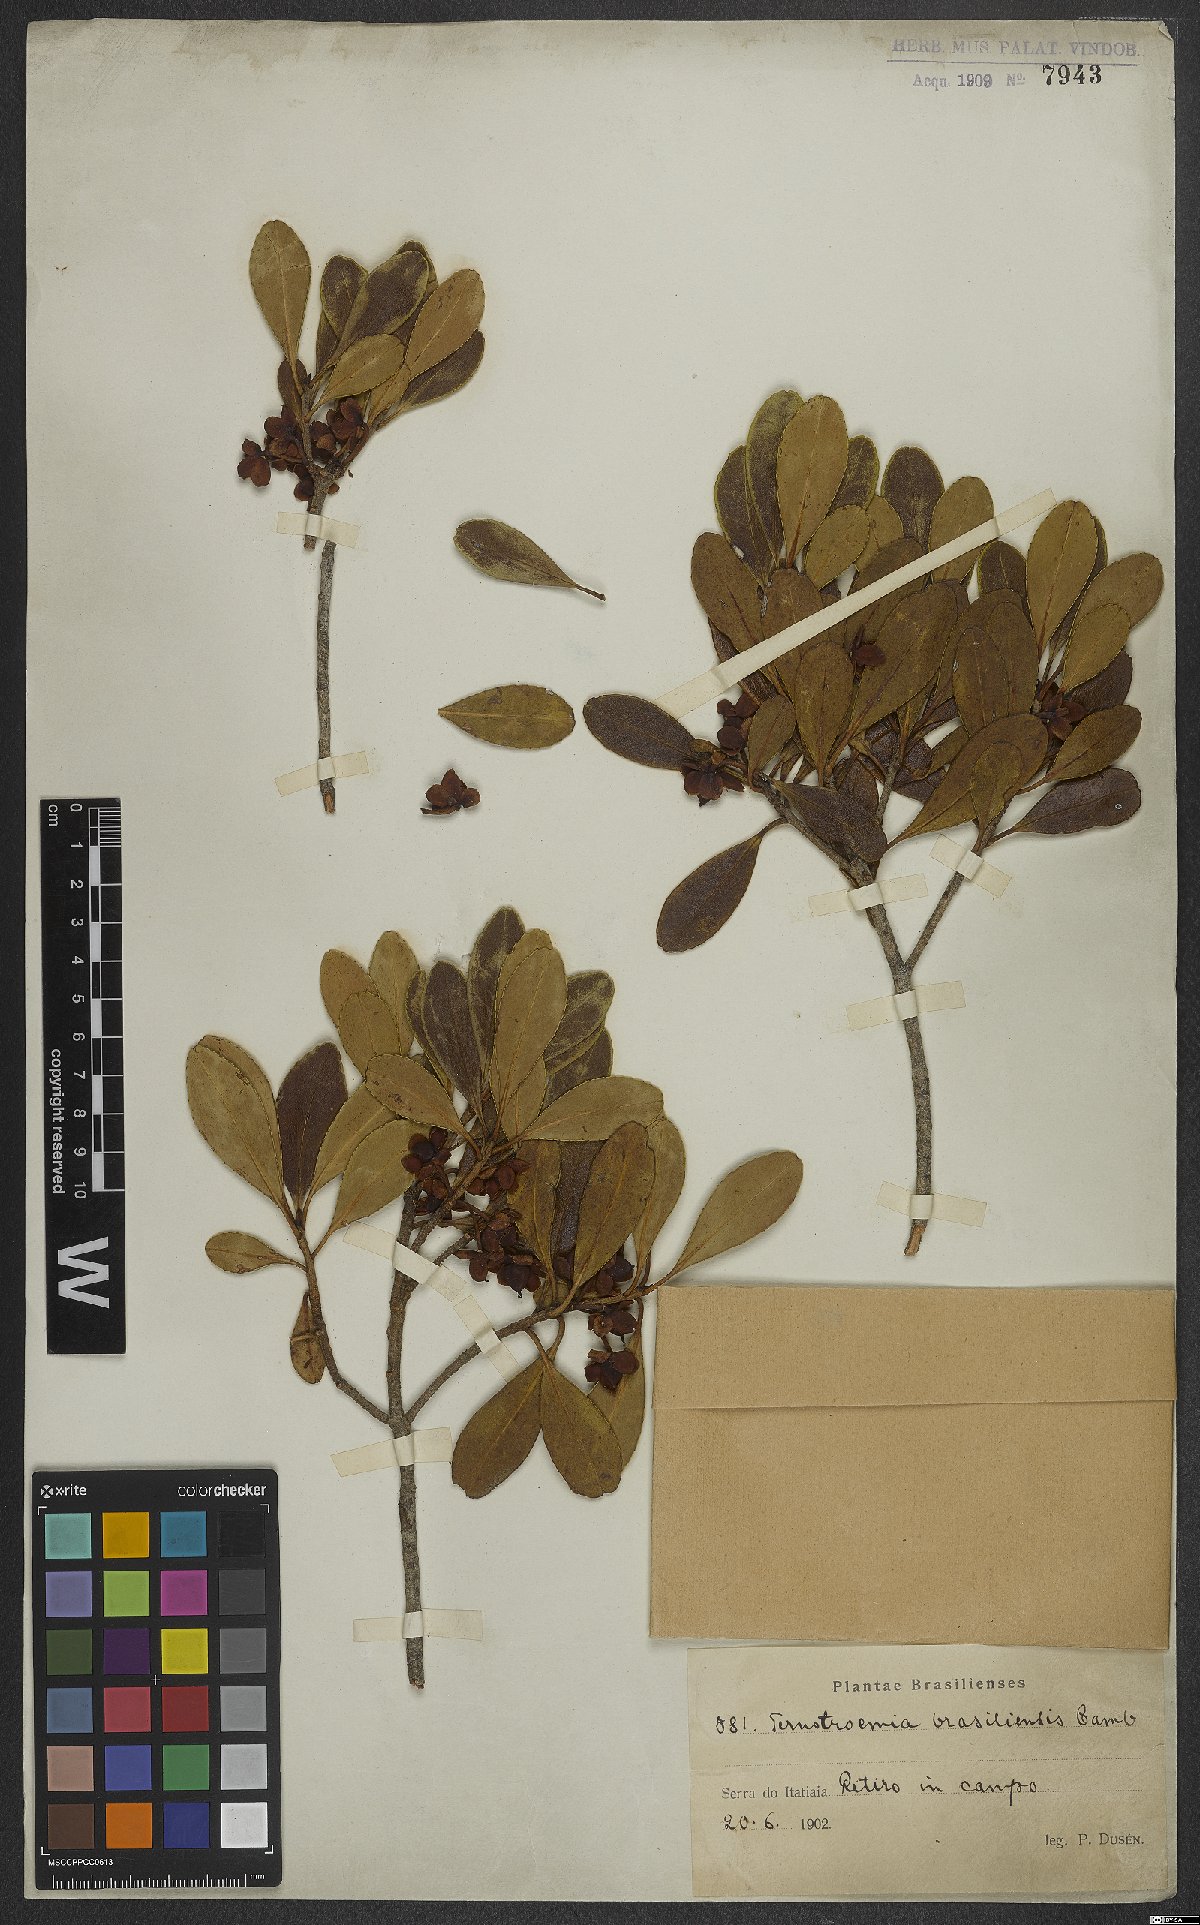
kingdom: Plantae
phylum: Tracheophyta
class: Magnoliopsida
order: Ericales
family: Pentaphylacaceae
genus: Ternstroemia
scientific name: Ternstroemia brasiliensis
